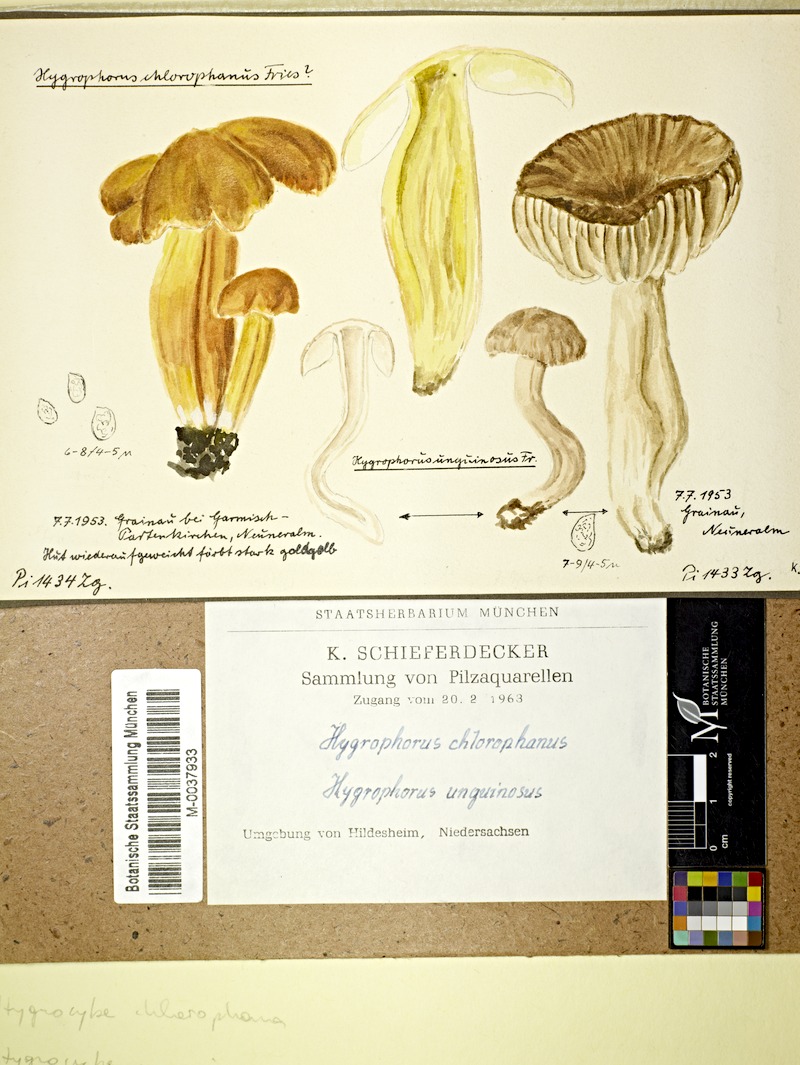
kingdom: Fungi
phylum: Basidiomycota
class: Agaricomycetes
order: Agaricales
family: Hygrophoraceae
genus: Hygrocybe
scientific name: Hygrocybe chlorophana
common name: Golden waxcap
